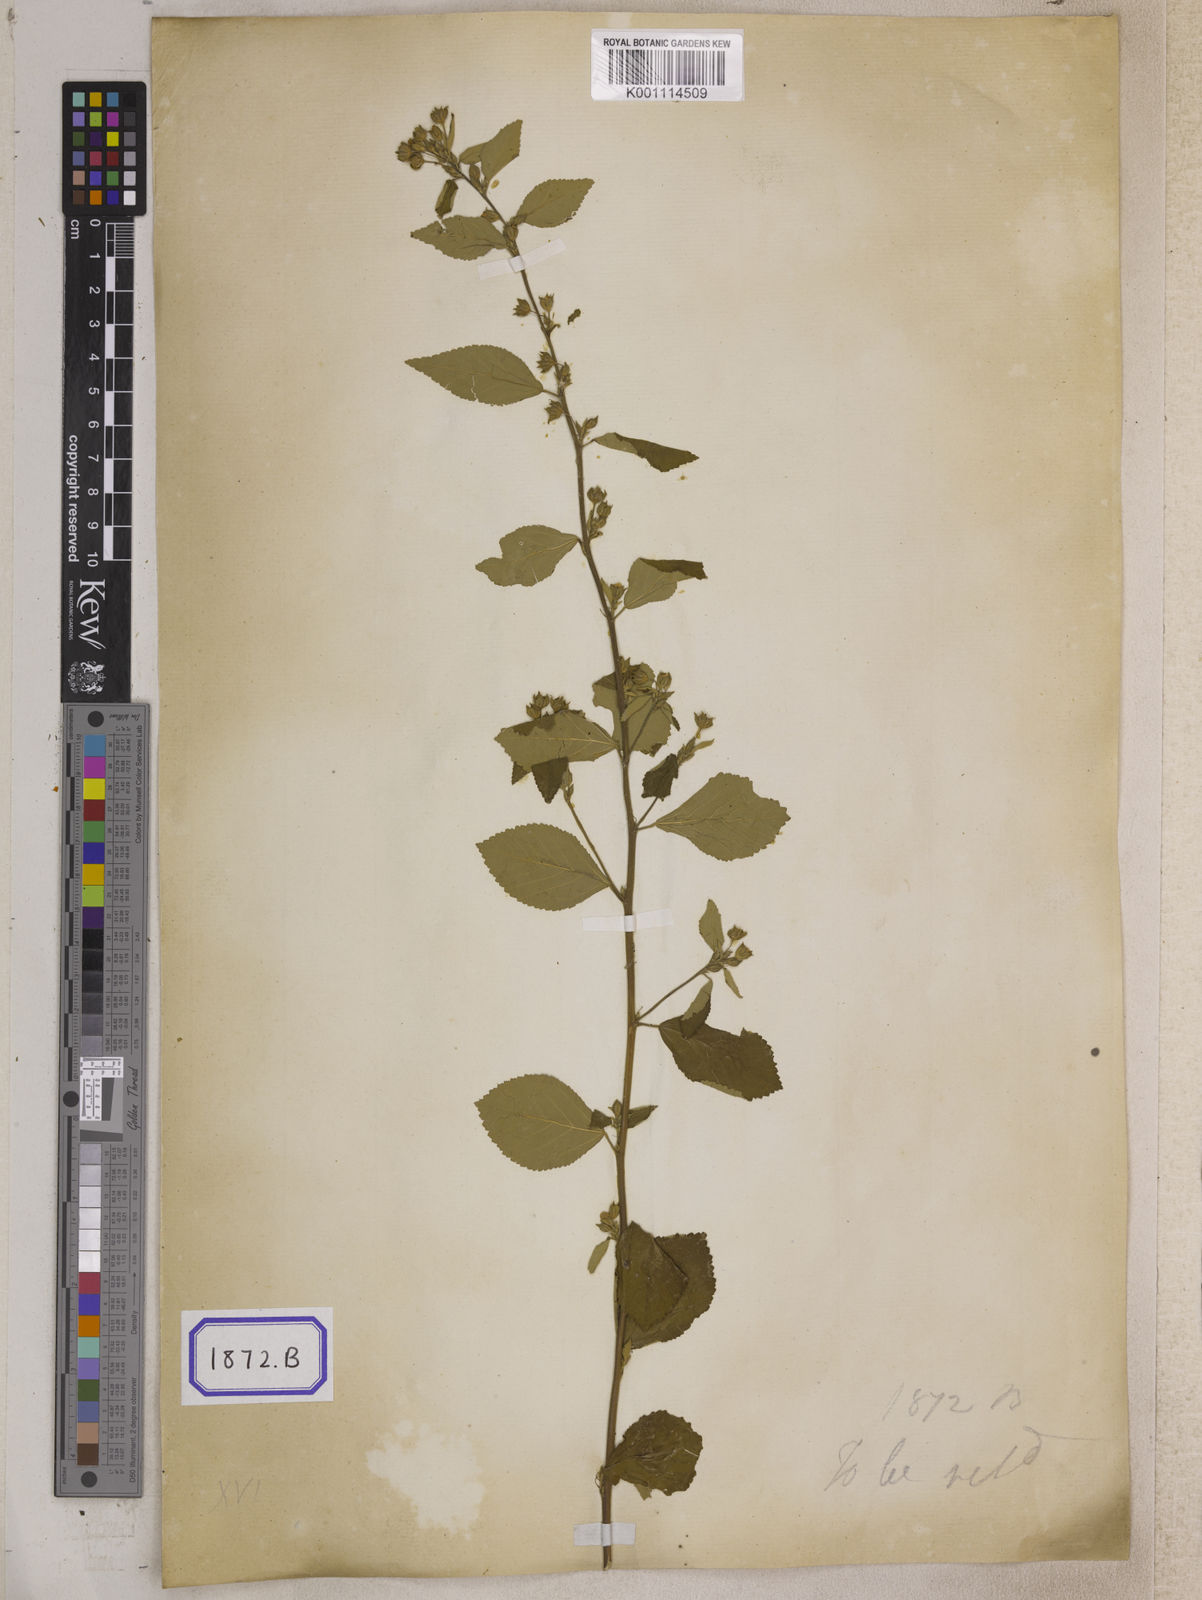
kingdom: Plantae
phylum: Tracheophyta
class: Magnoliopsida
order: Malvales
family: Malvaceae
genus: Sida
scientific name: Sida spinosa
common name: Prickly fanpetals
